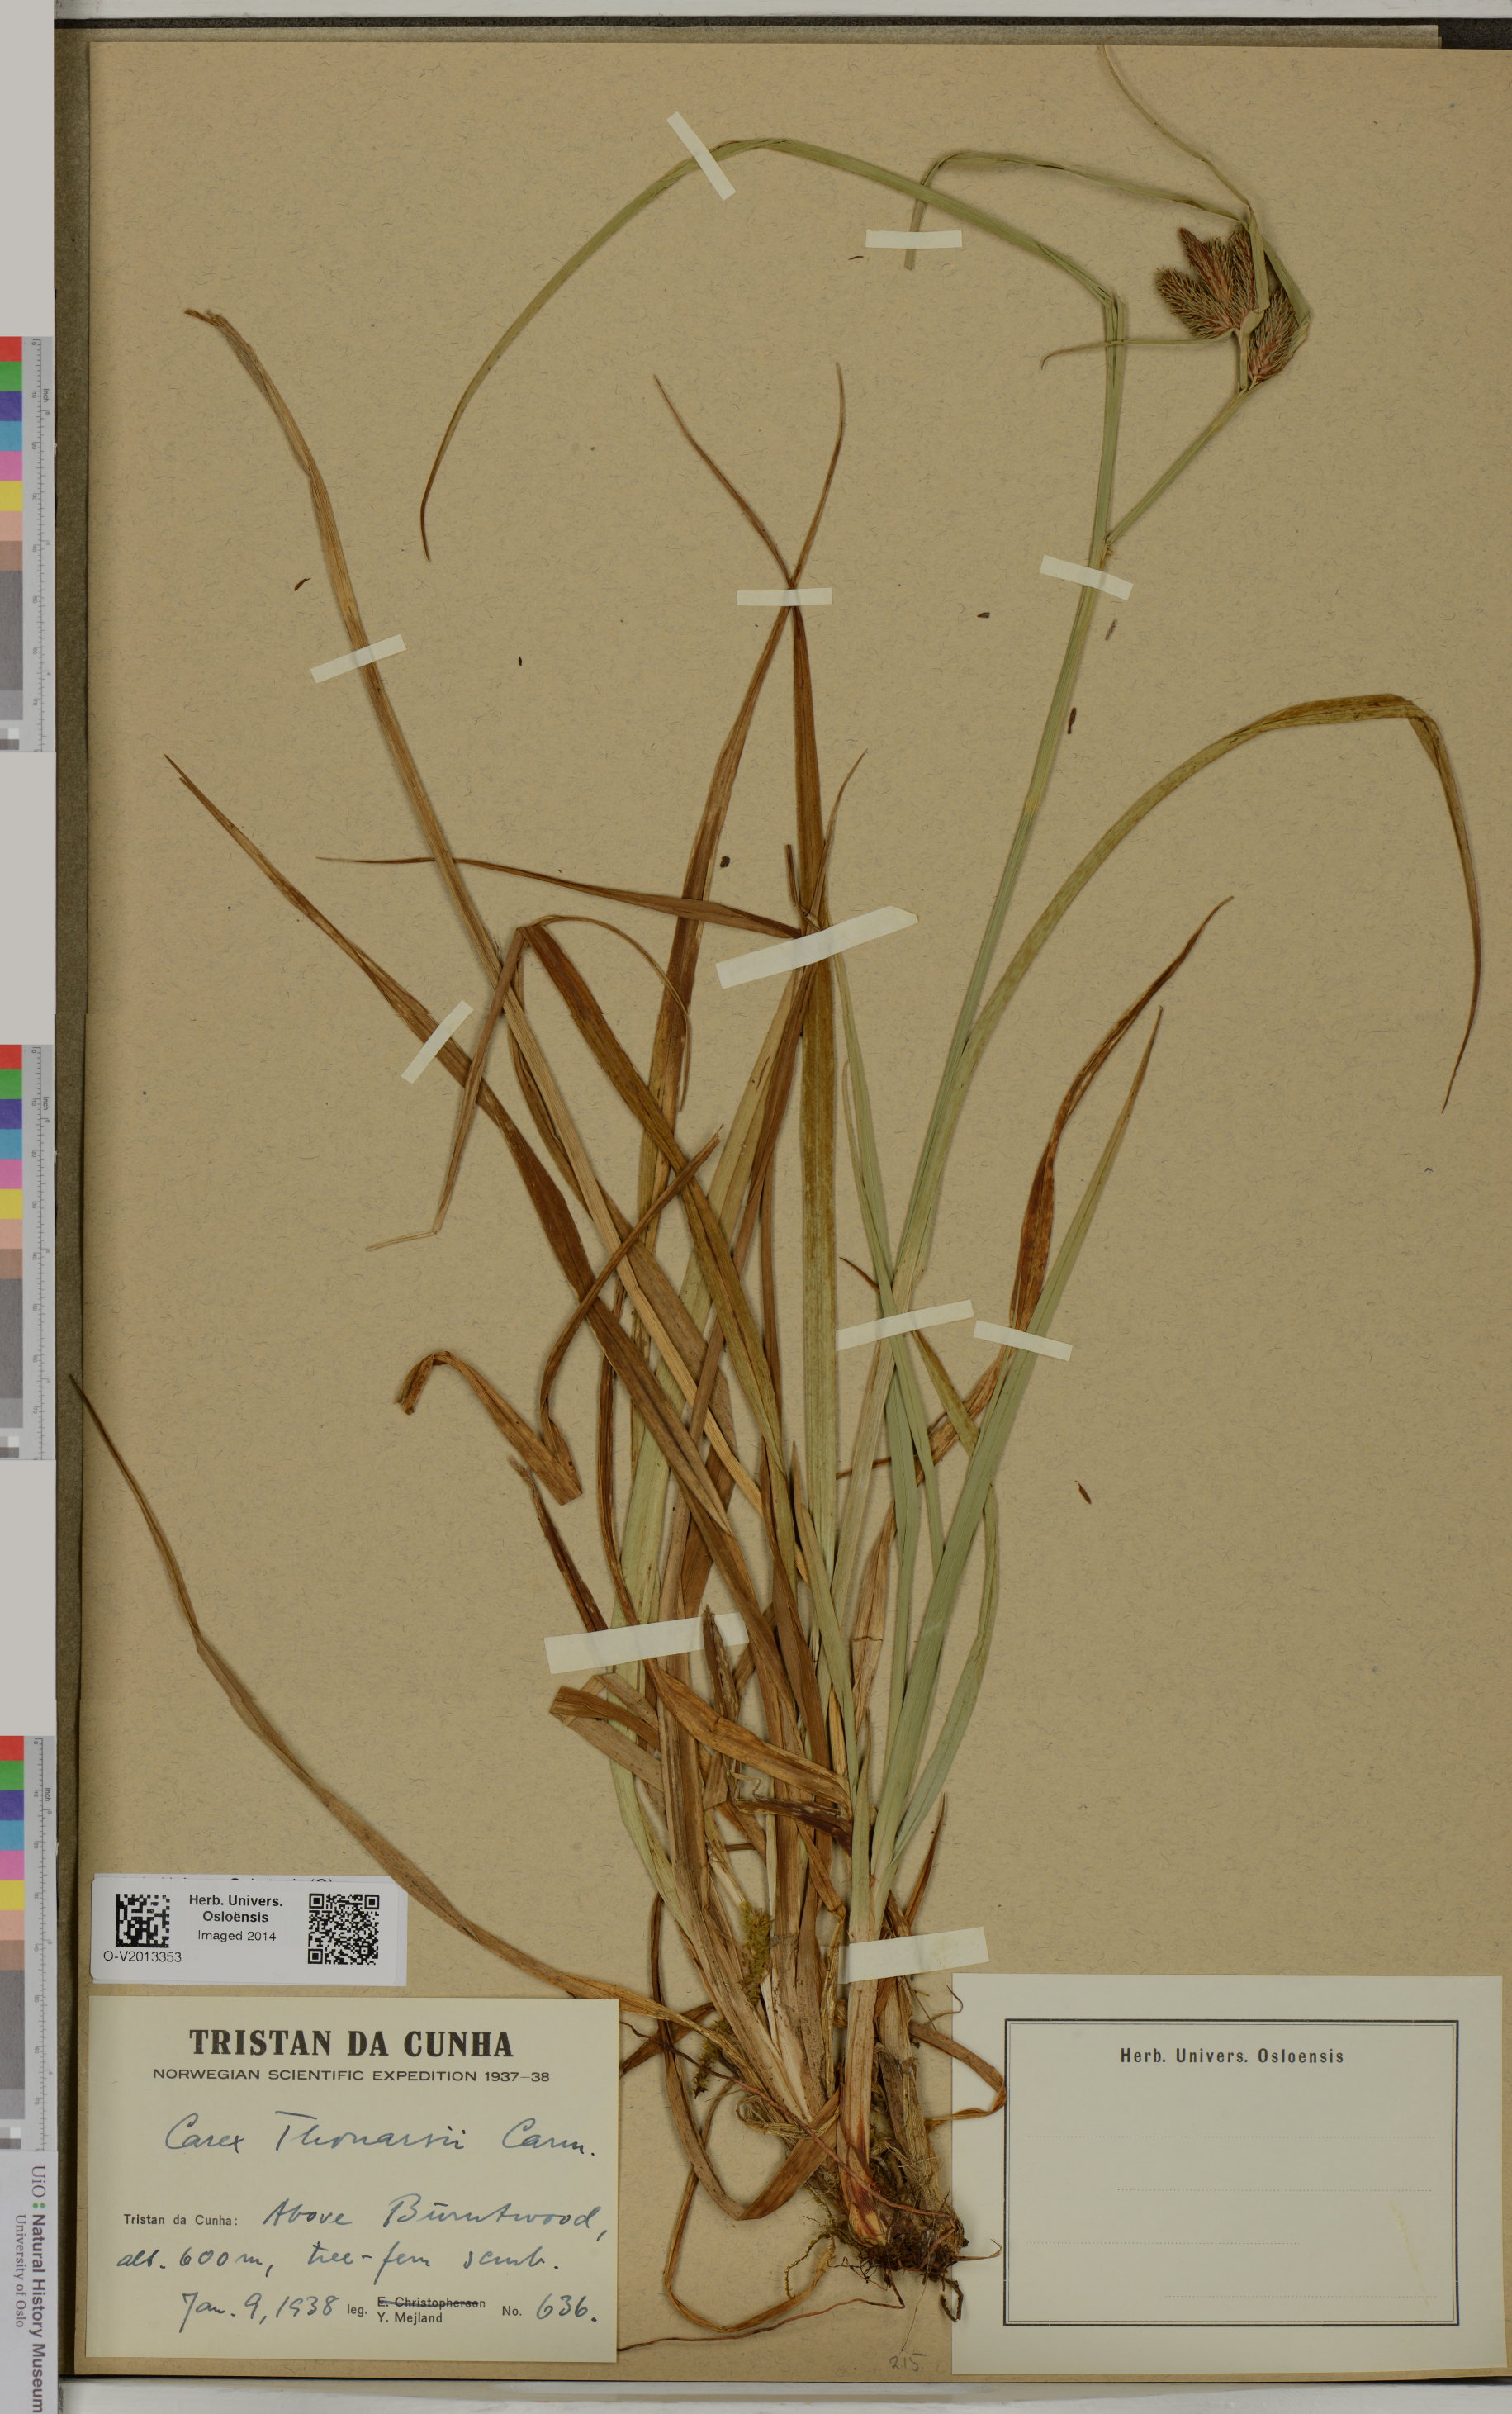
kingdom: Plantae
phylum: Tracheophyta
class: Liliopsida
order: Poales
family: Cyperaceae
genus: Carex
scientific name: Carex thouarsii
